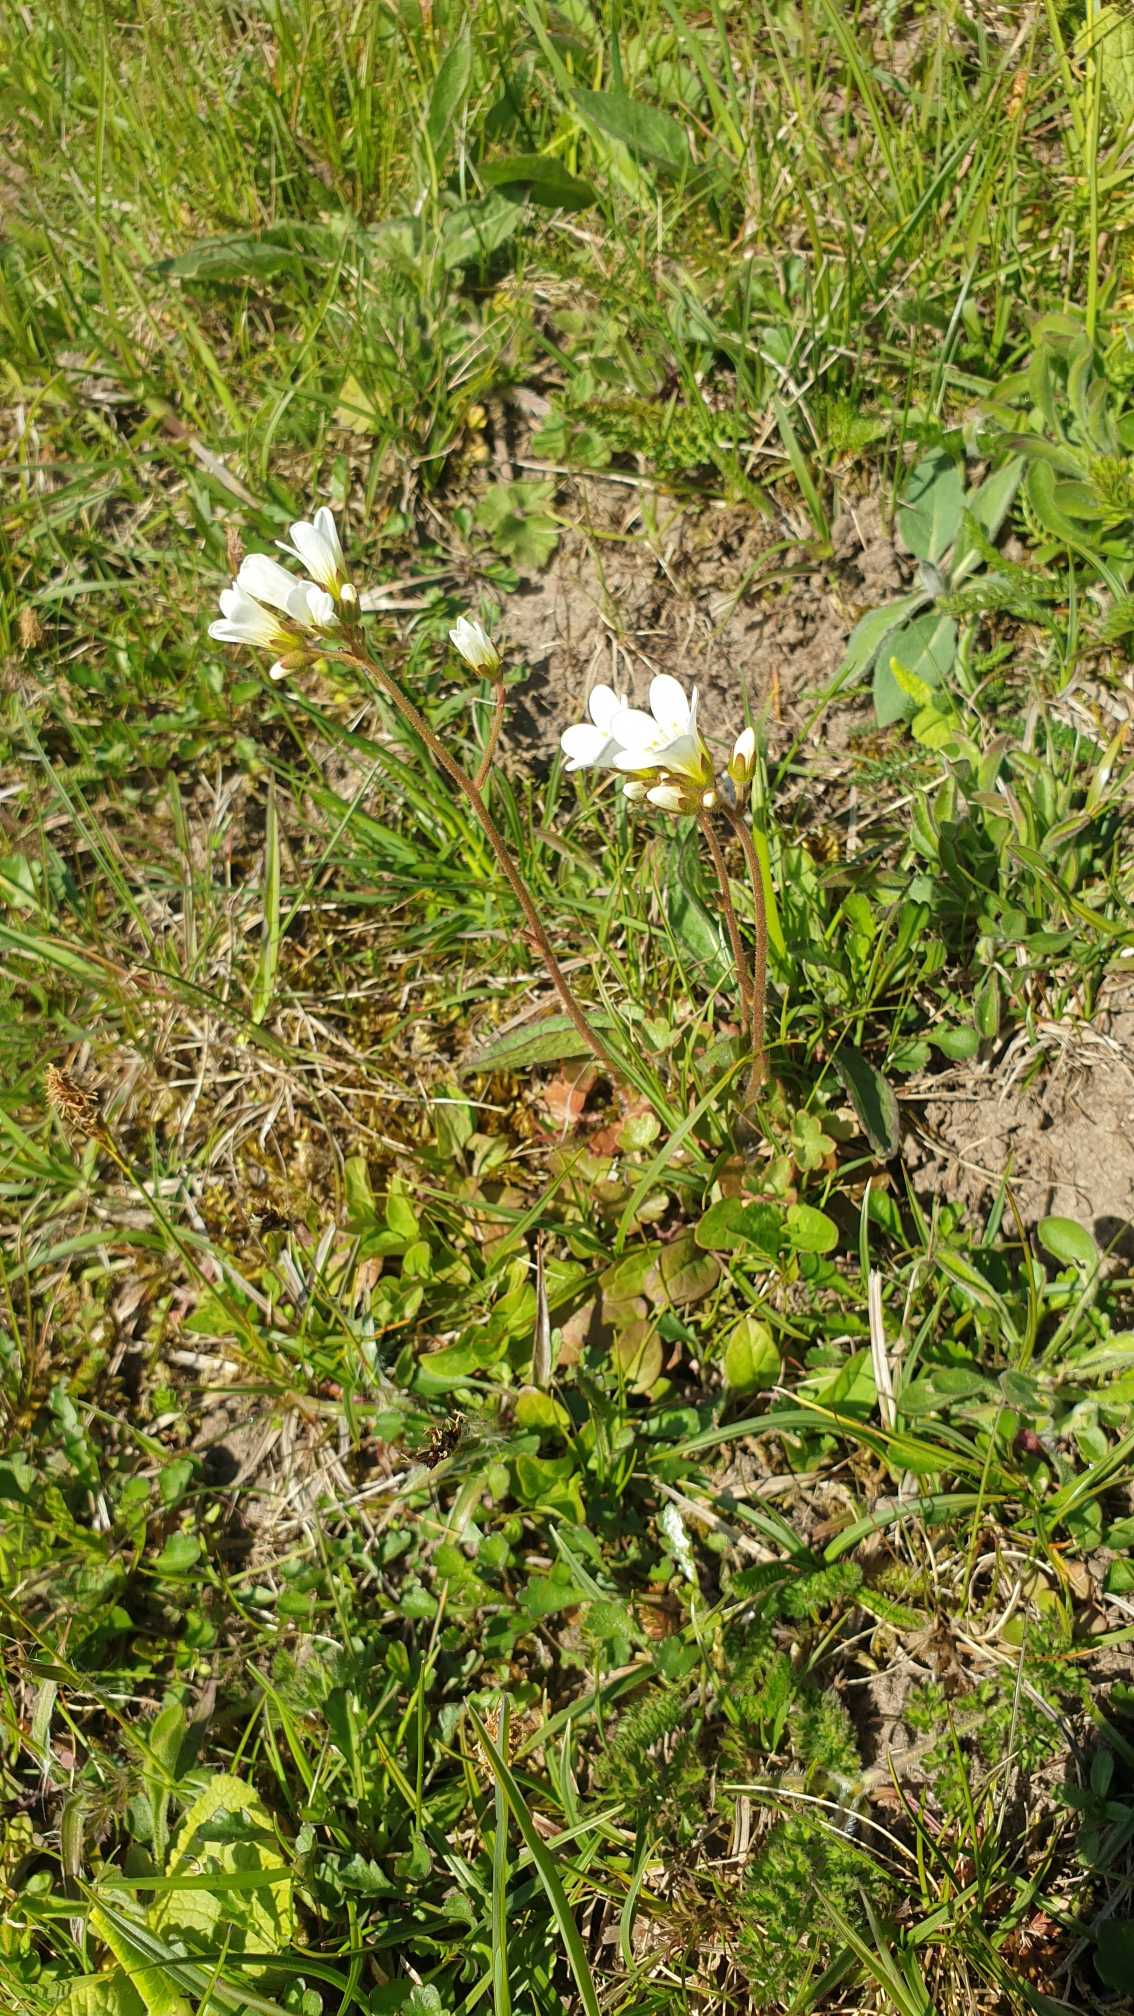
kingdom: Plantae
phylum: Tracheophyta
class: Magnoliopsida
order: Saxifragales
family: Saxifragaceae
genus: Saxifraga
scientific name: Saxifraga granulata
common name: Kornet stenbræk
